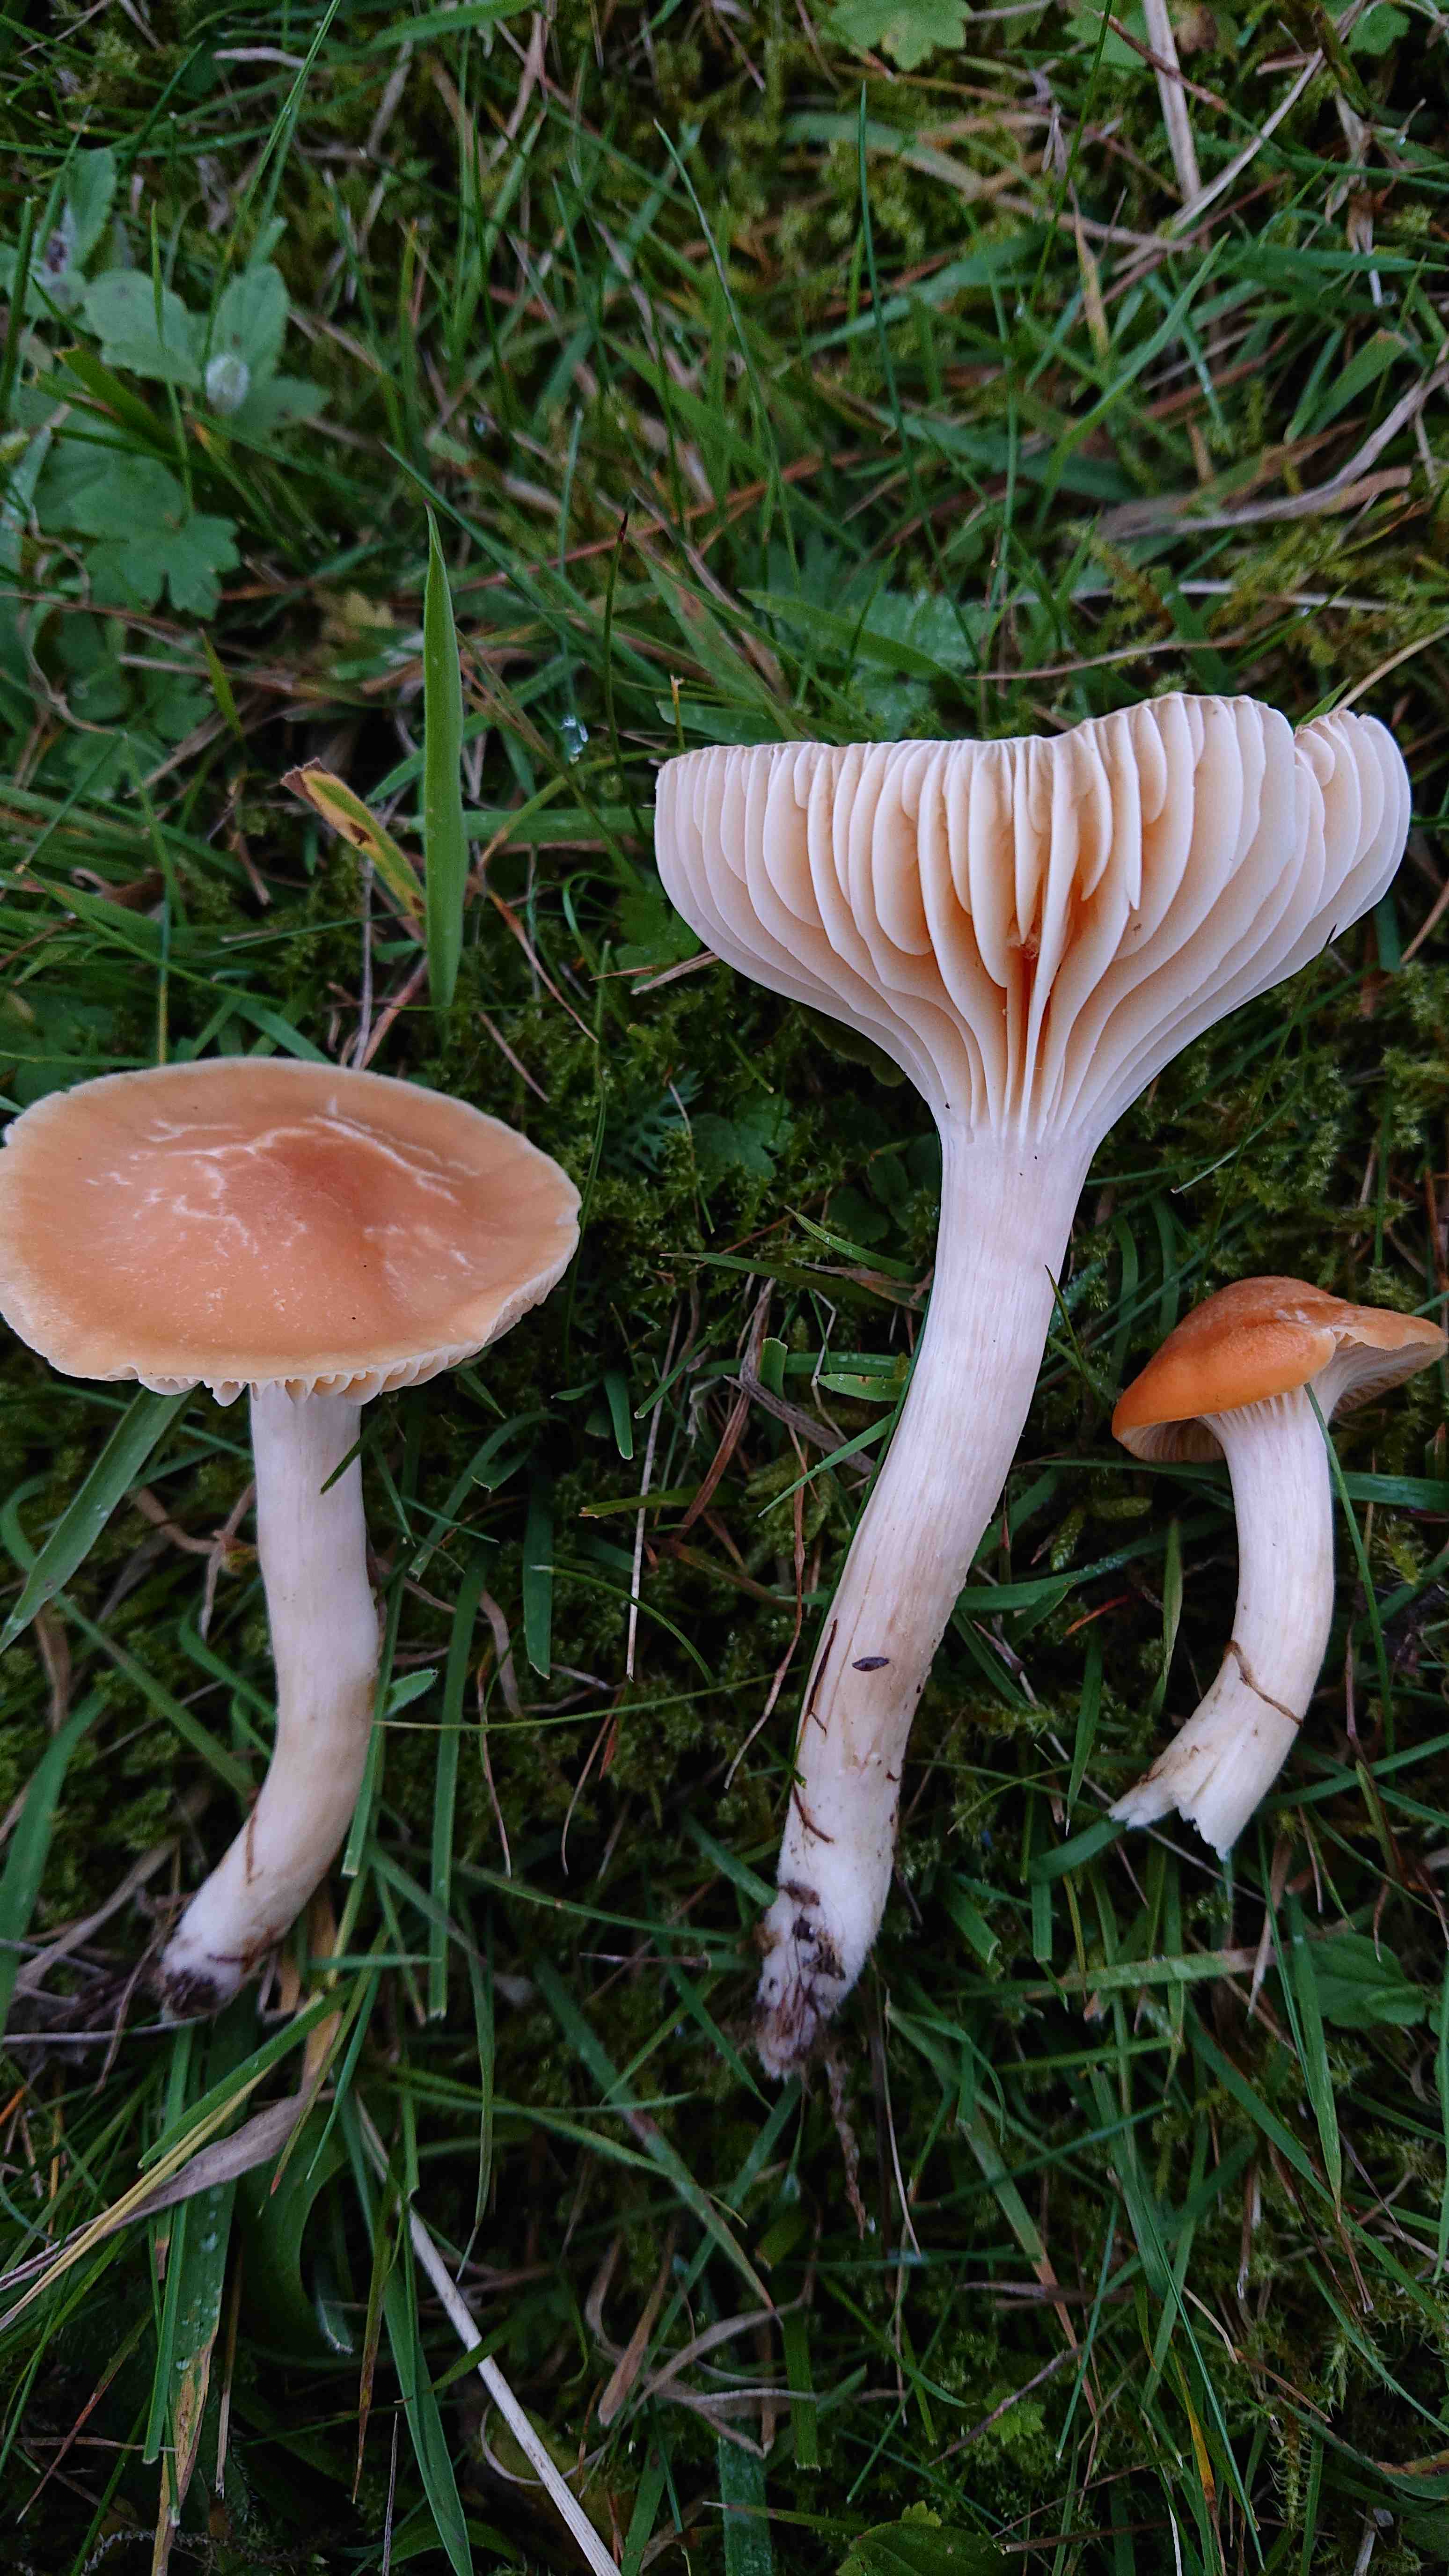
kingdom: Fungi
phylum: Basidiomycota
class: Agaricomycetes
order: Agaricales
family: Hygrophoraceae
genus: Cuphophyllus
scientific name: Cuphophyllus pratensis
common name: eng-vokshat
